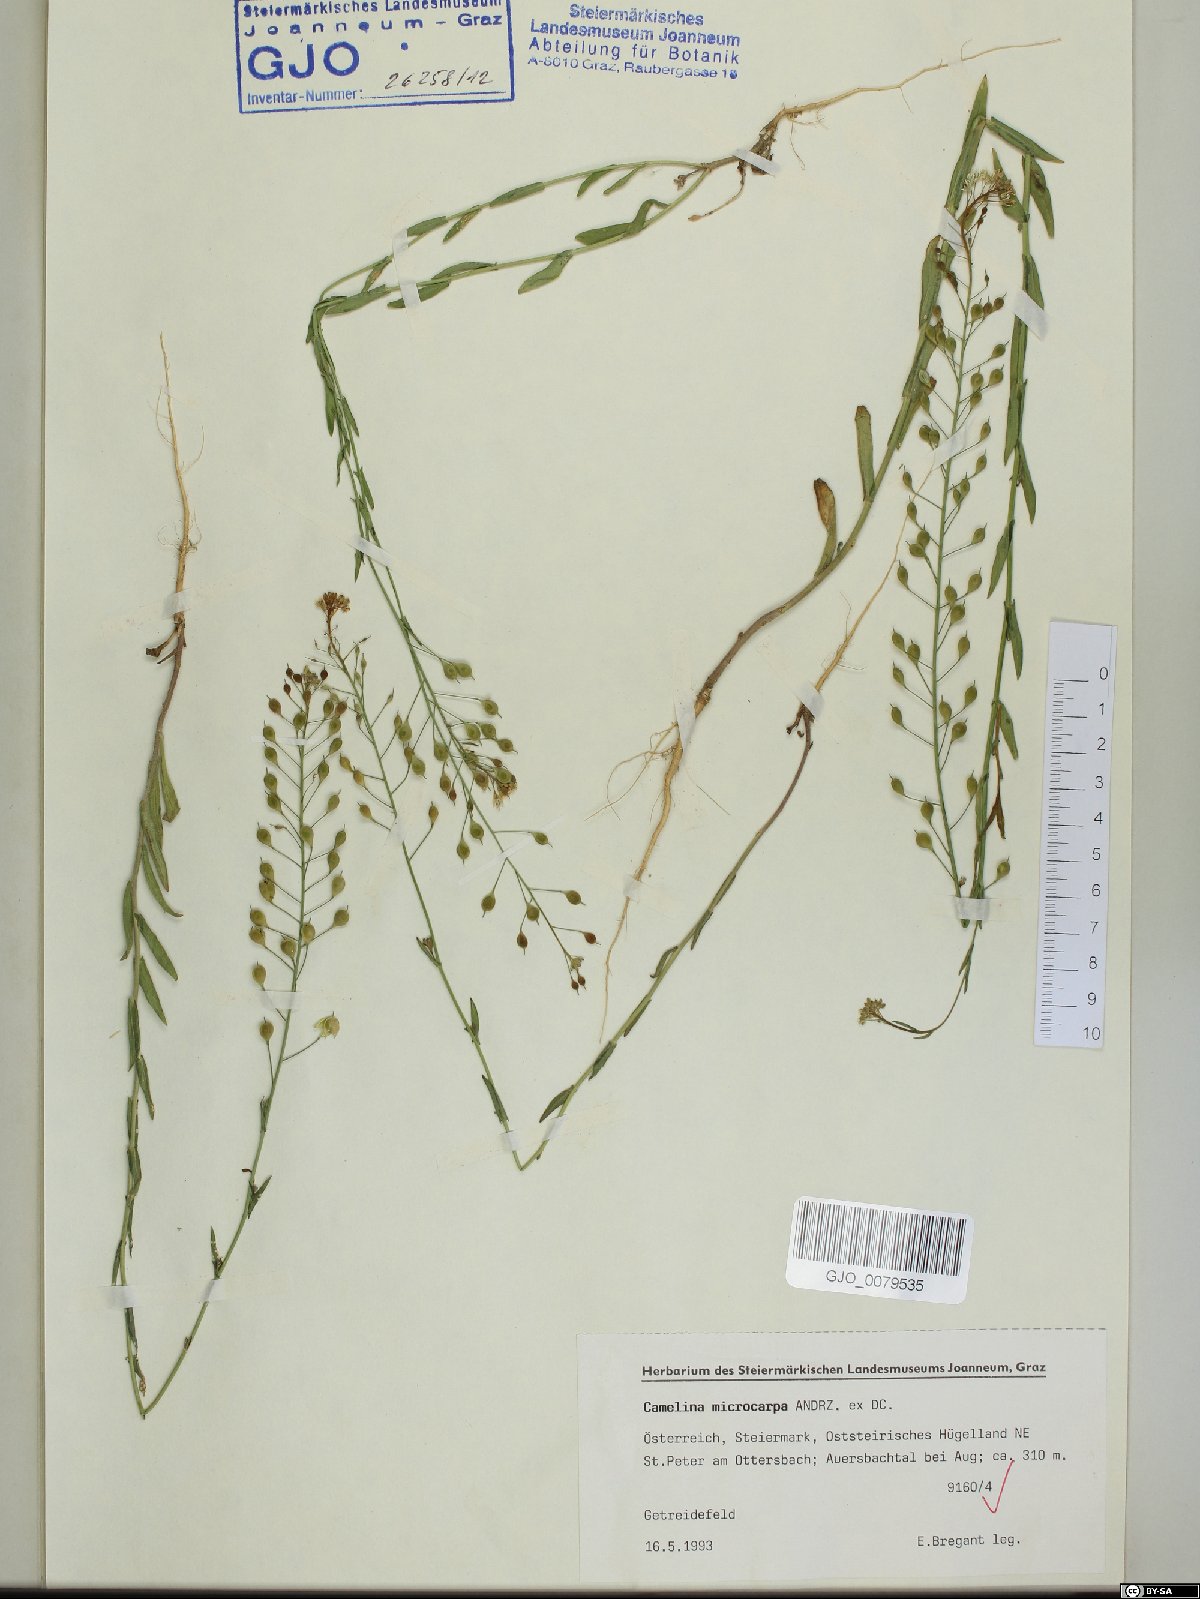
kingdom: Plantae
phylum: Tracheophyta
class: Magnoliopsida
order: Brassicales
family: Brassicaceae
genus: Camelina
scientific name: Camelina microcarpa
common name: Lesser gold-of-pleasure
